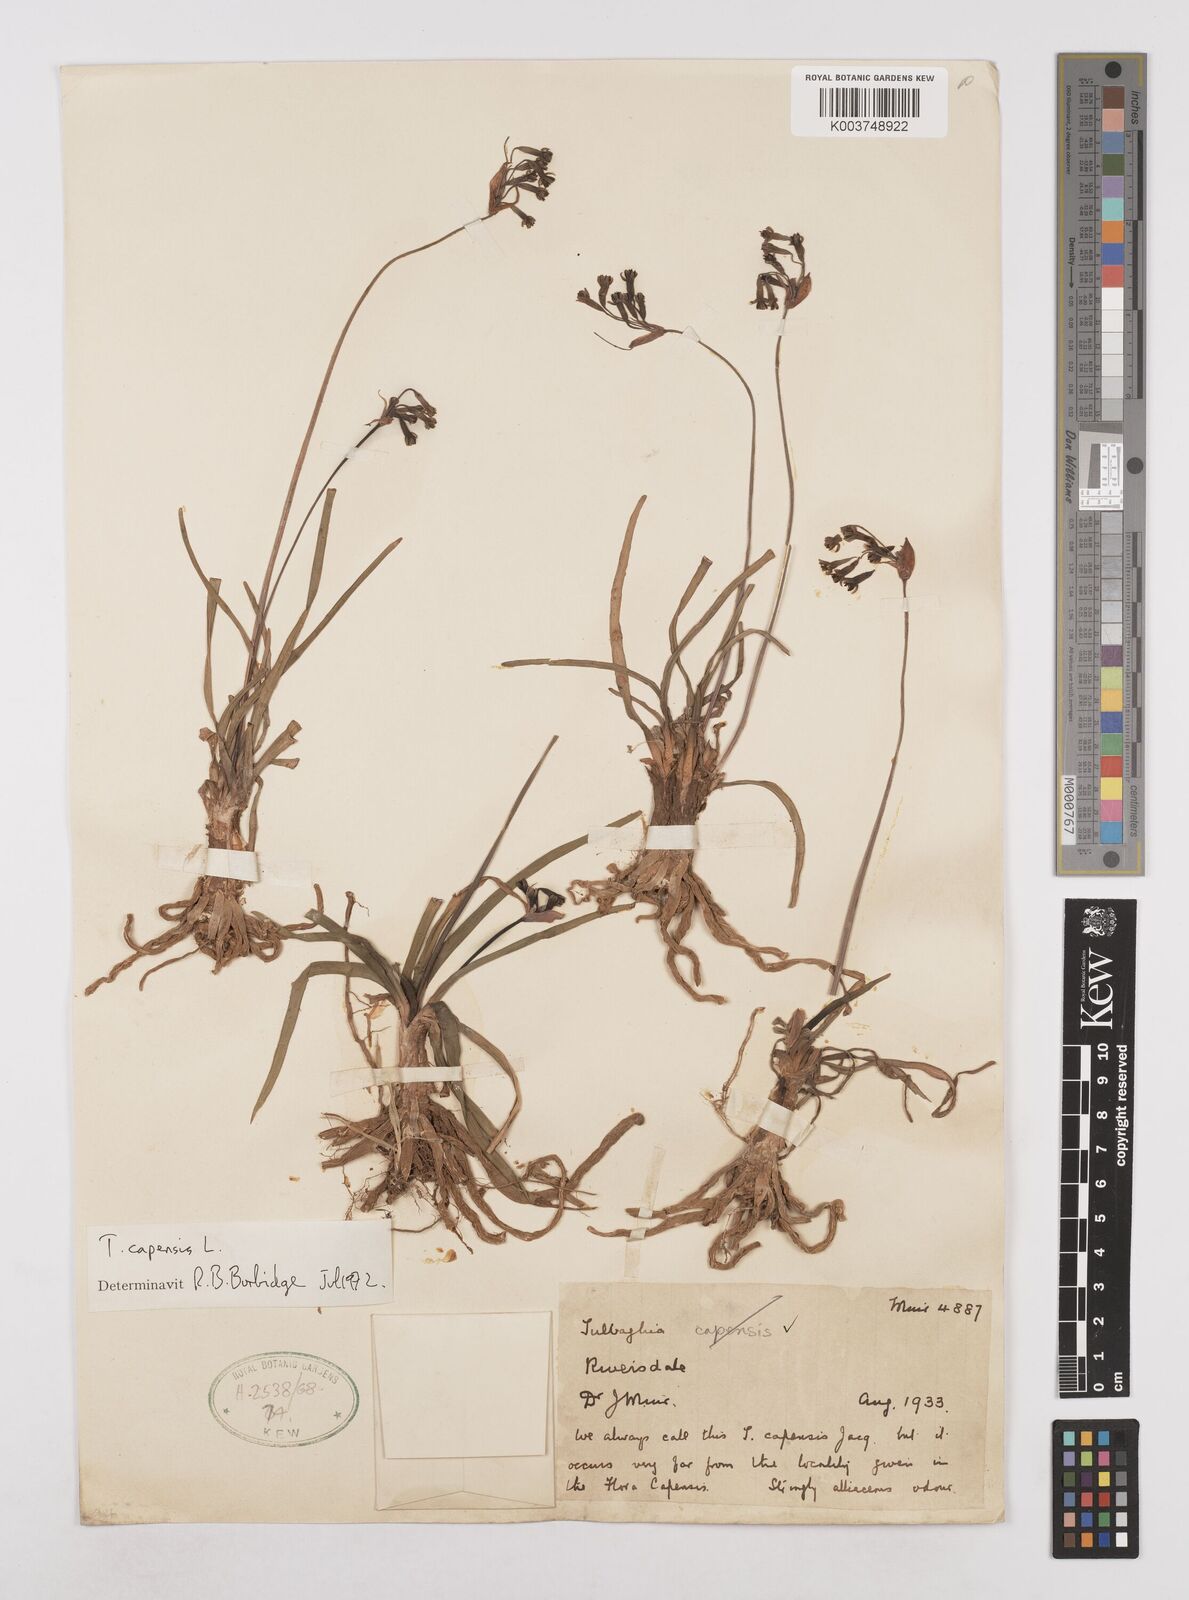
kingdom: Plantae
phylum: Tracheophyta
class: Liliopsida
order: Asparagales
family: Amaryllidaceae
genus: Tulbaghia
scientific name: Tulbaghia capensis
